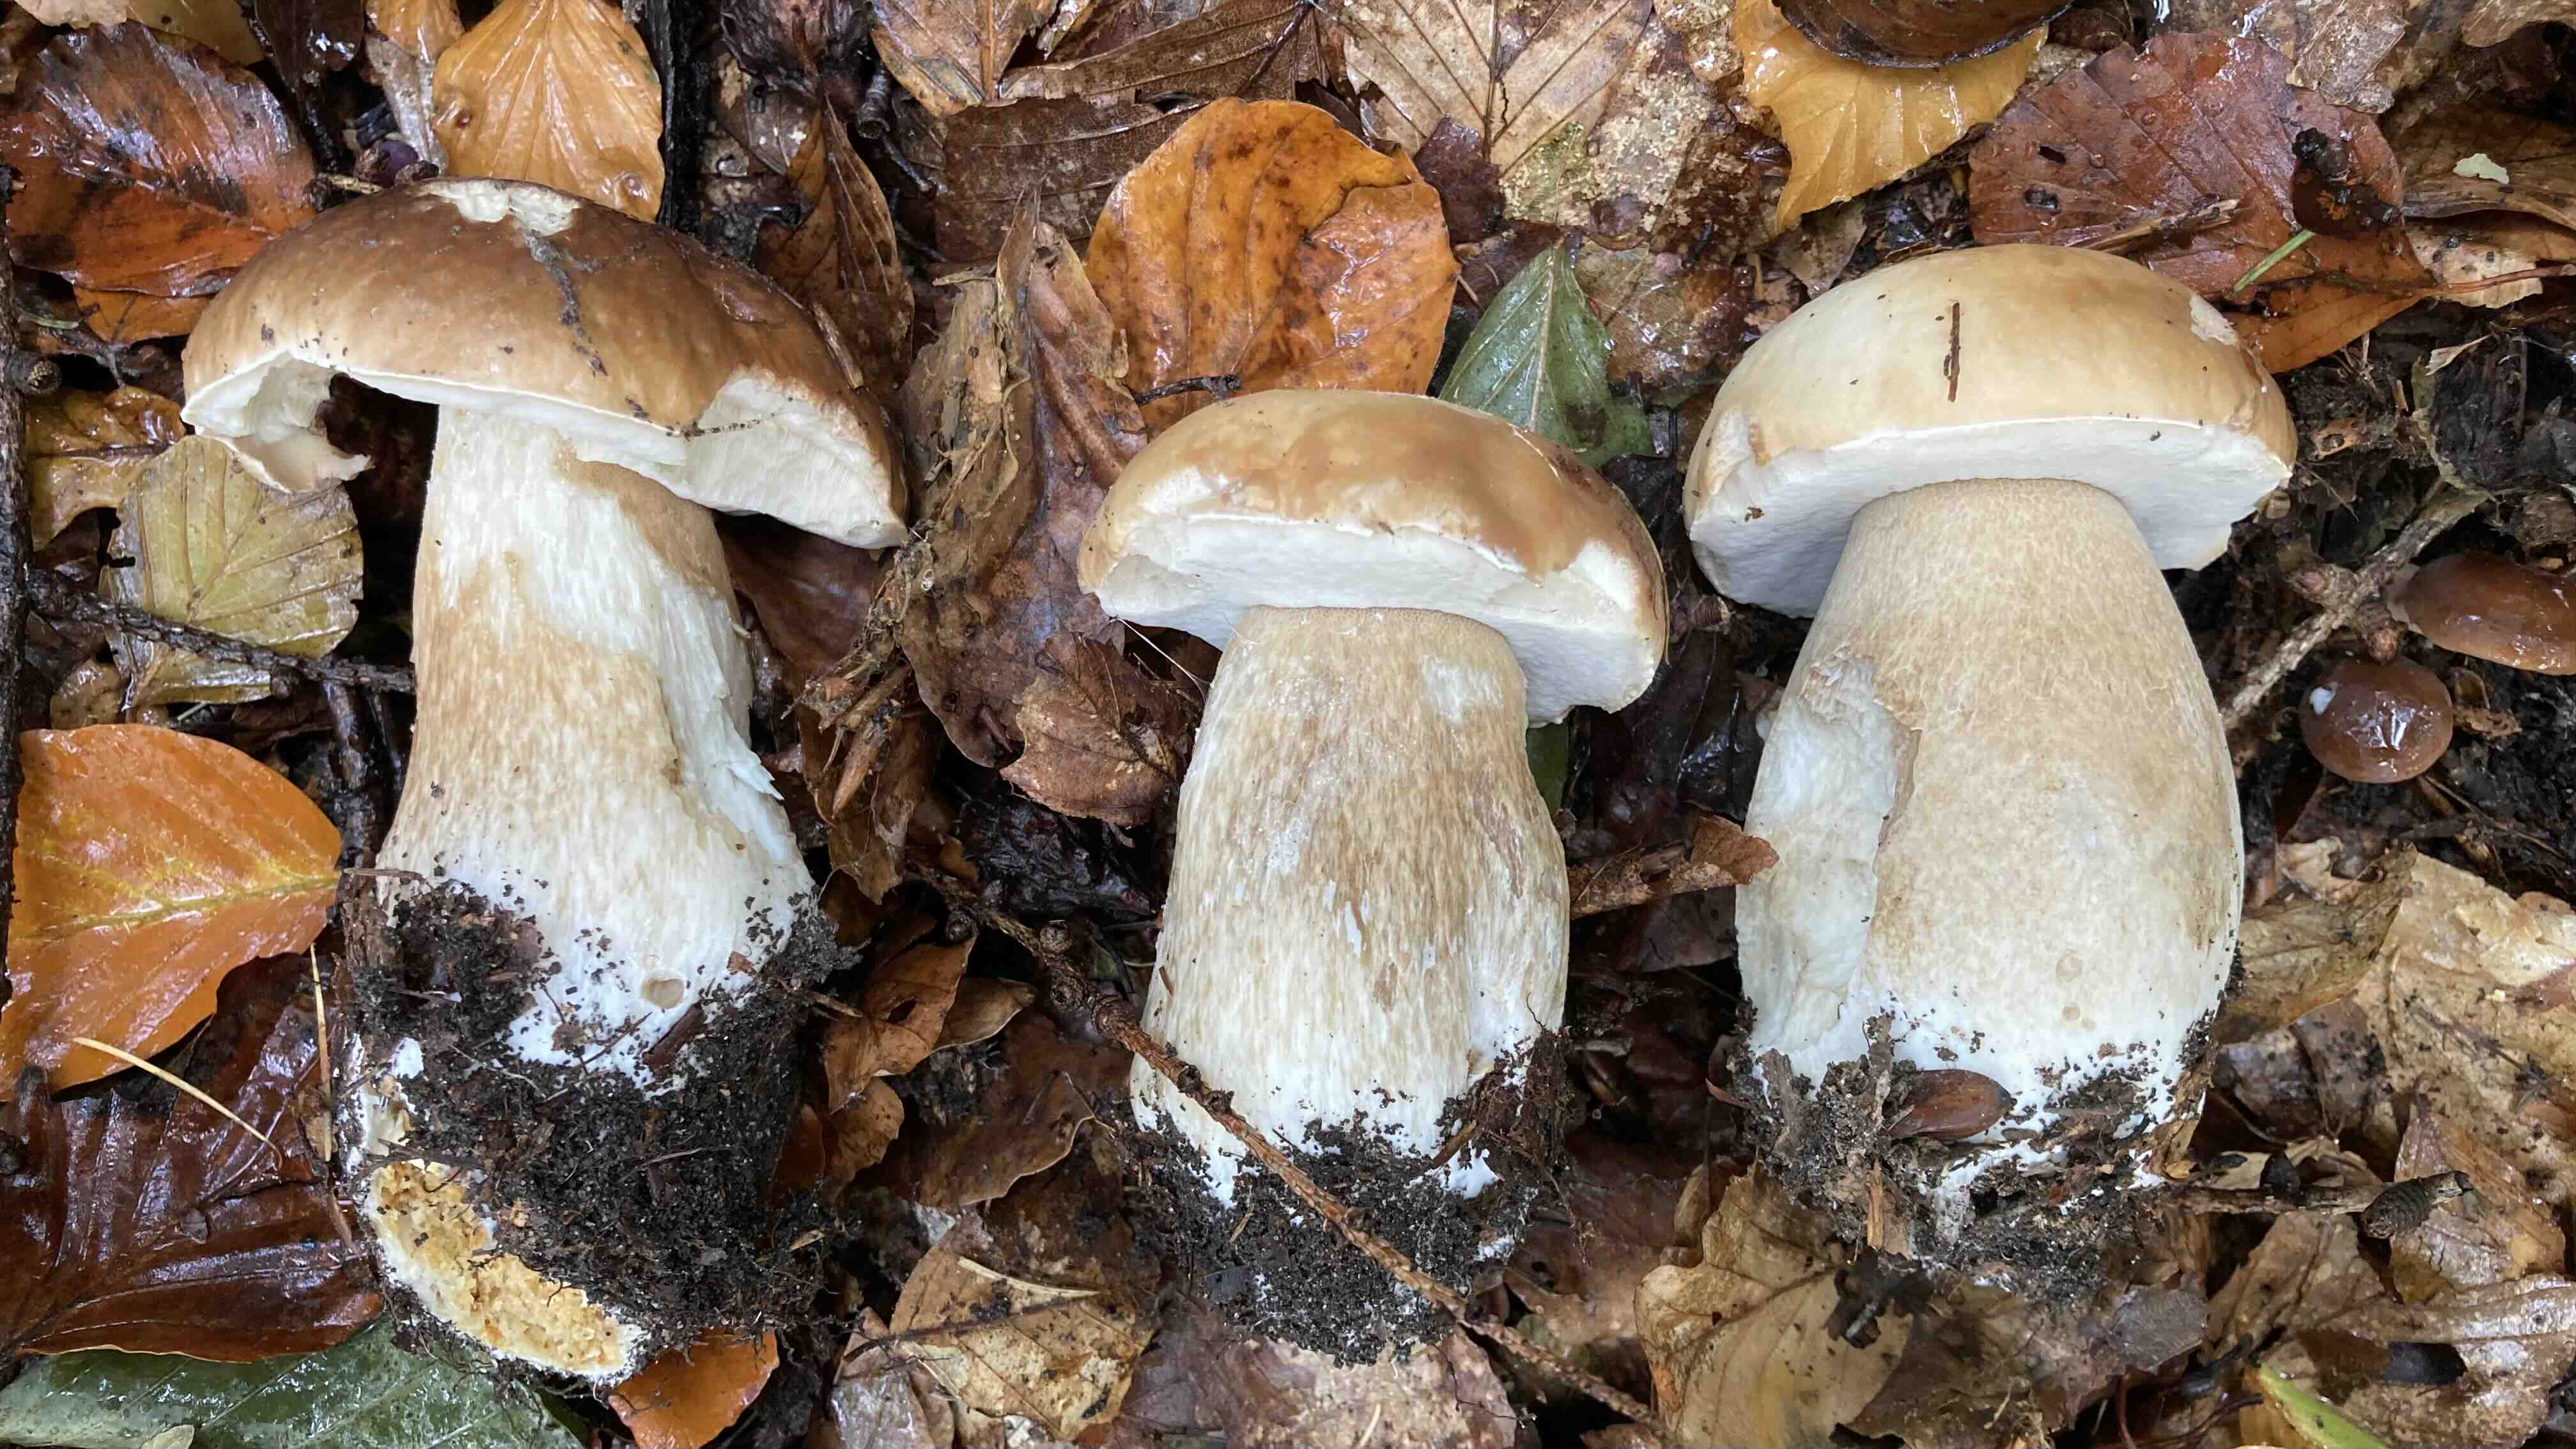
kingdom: Fungi
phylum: Basidiomycota
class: Agaricomycetes
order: Boletales
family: Boletaceae
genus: Boletus
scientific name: Boletus edulis
